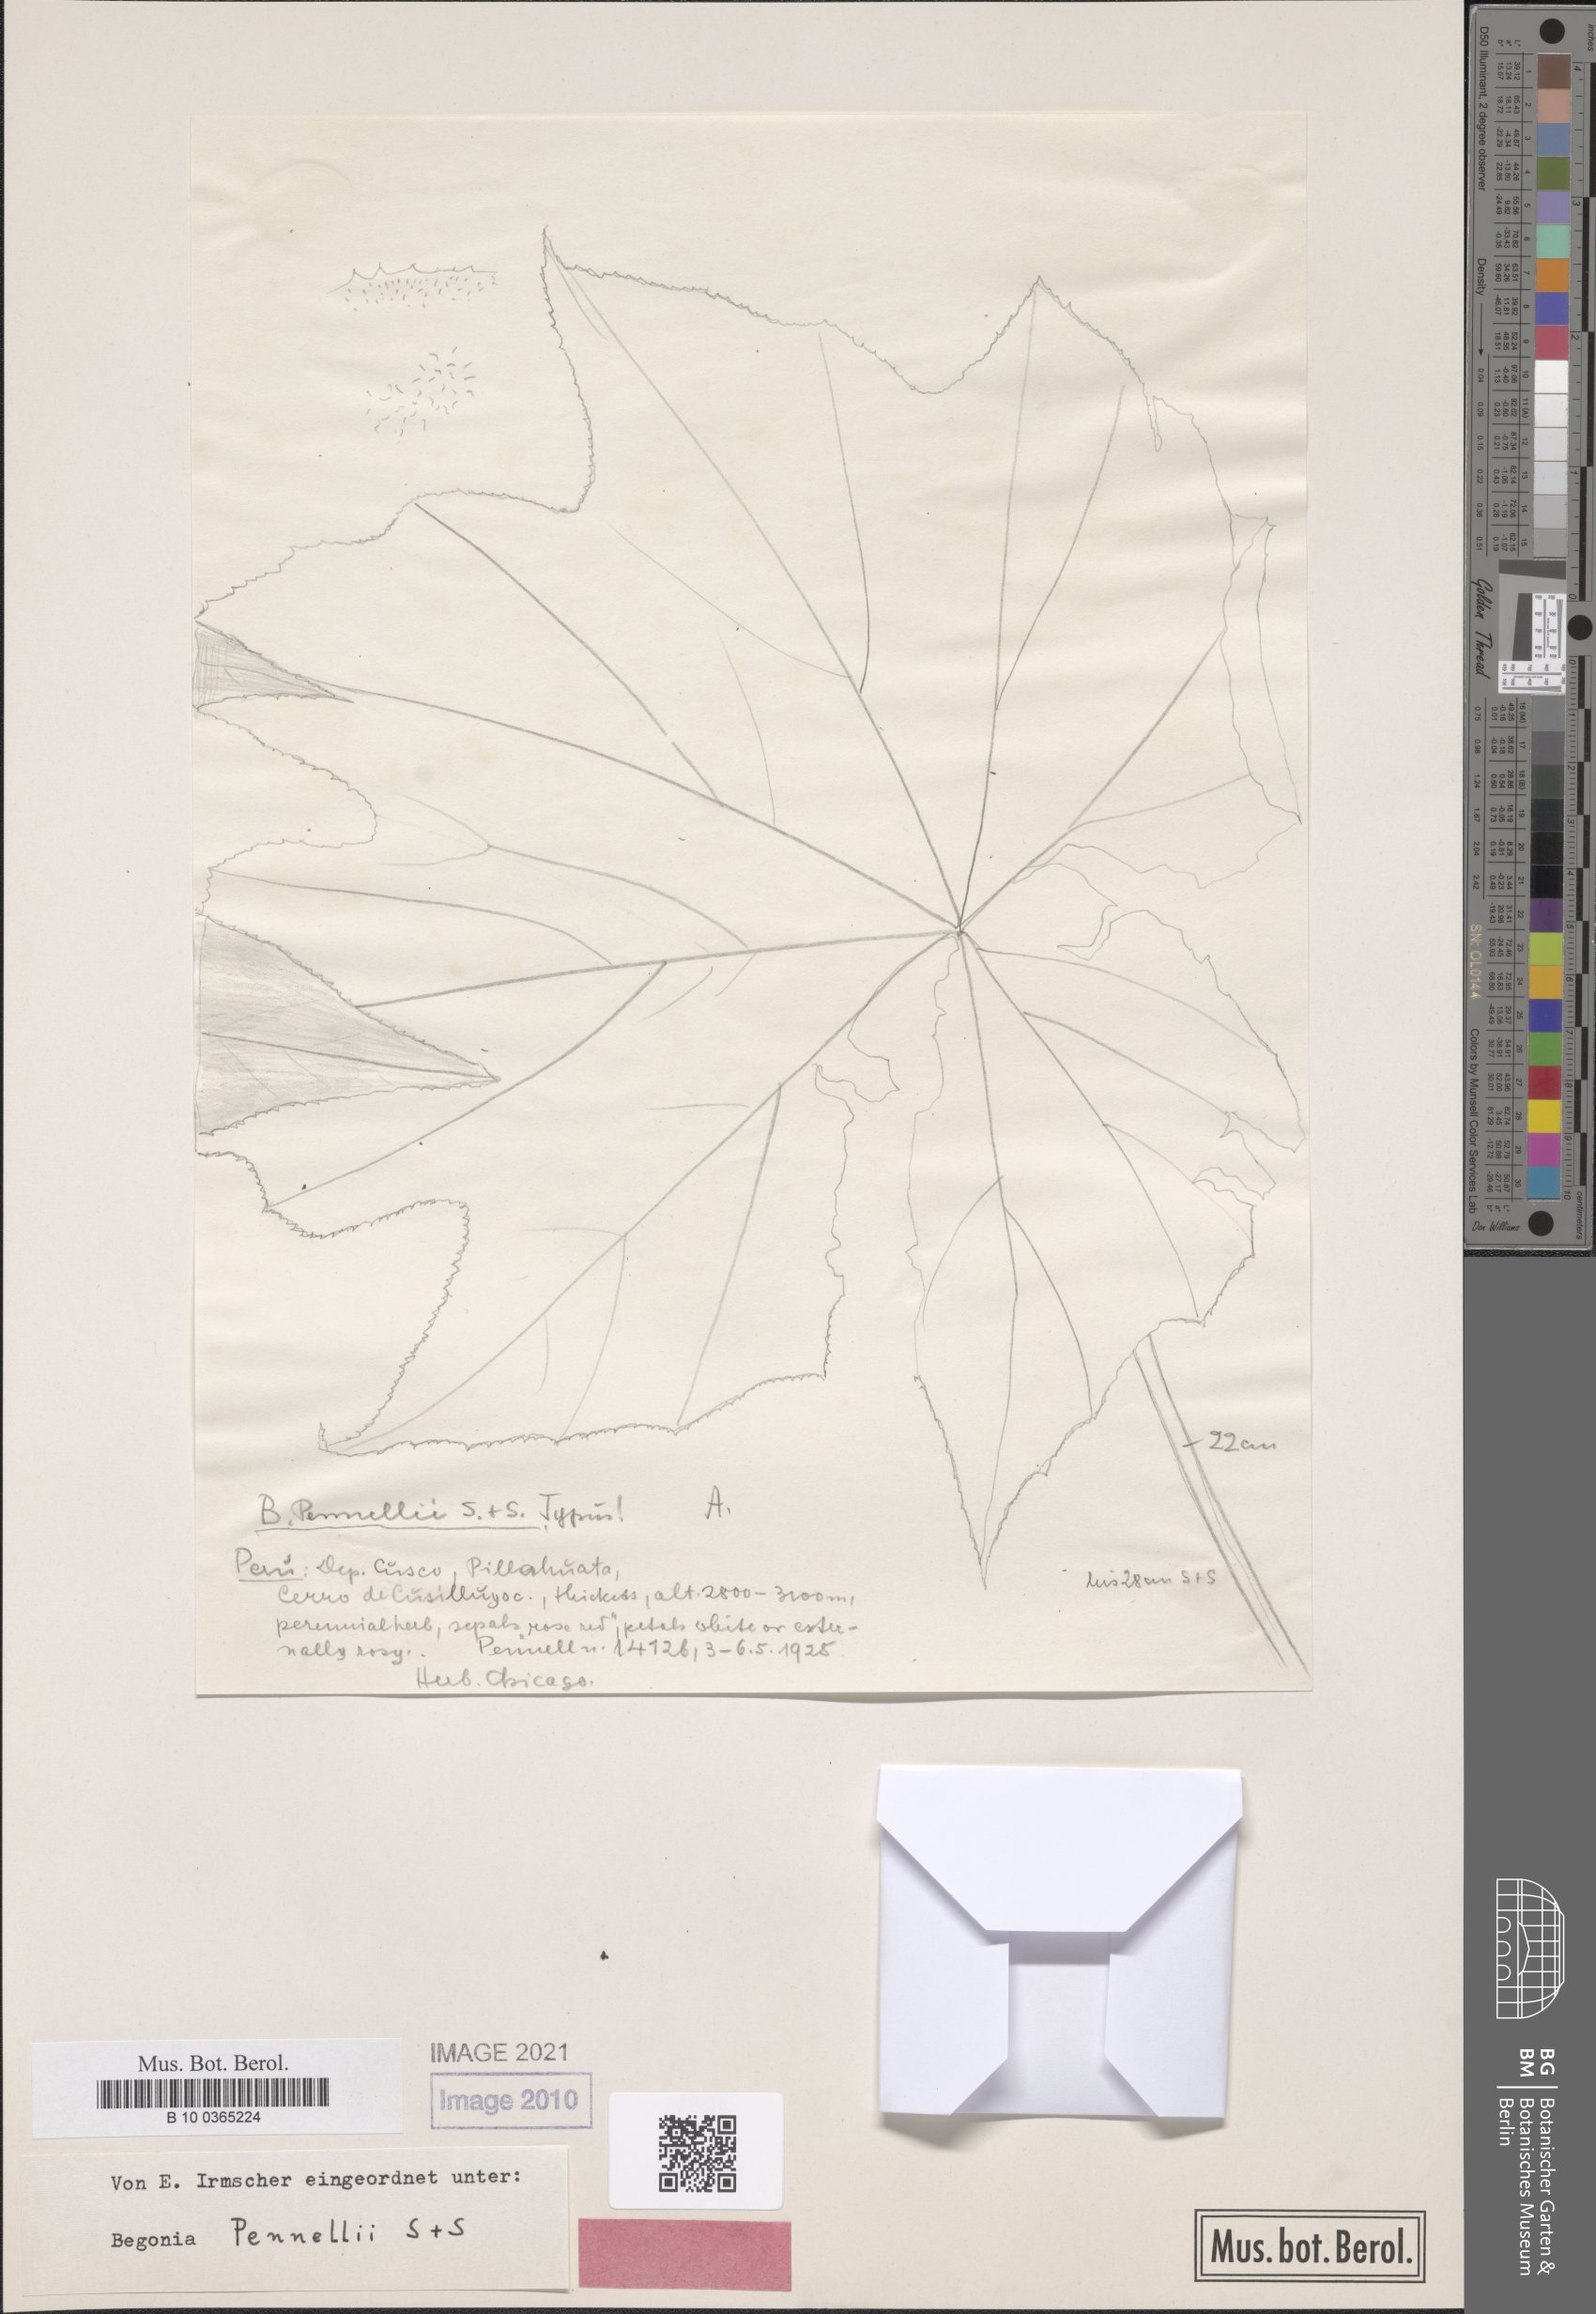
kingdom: Plantae
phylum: Tracheophyta
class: Magnoliopsida
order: Cucurbitales
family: Begoniaceae
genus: Begonia
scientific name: Begonia acerifolia
